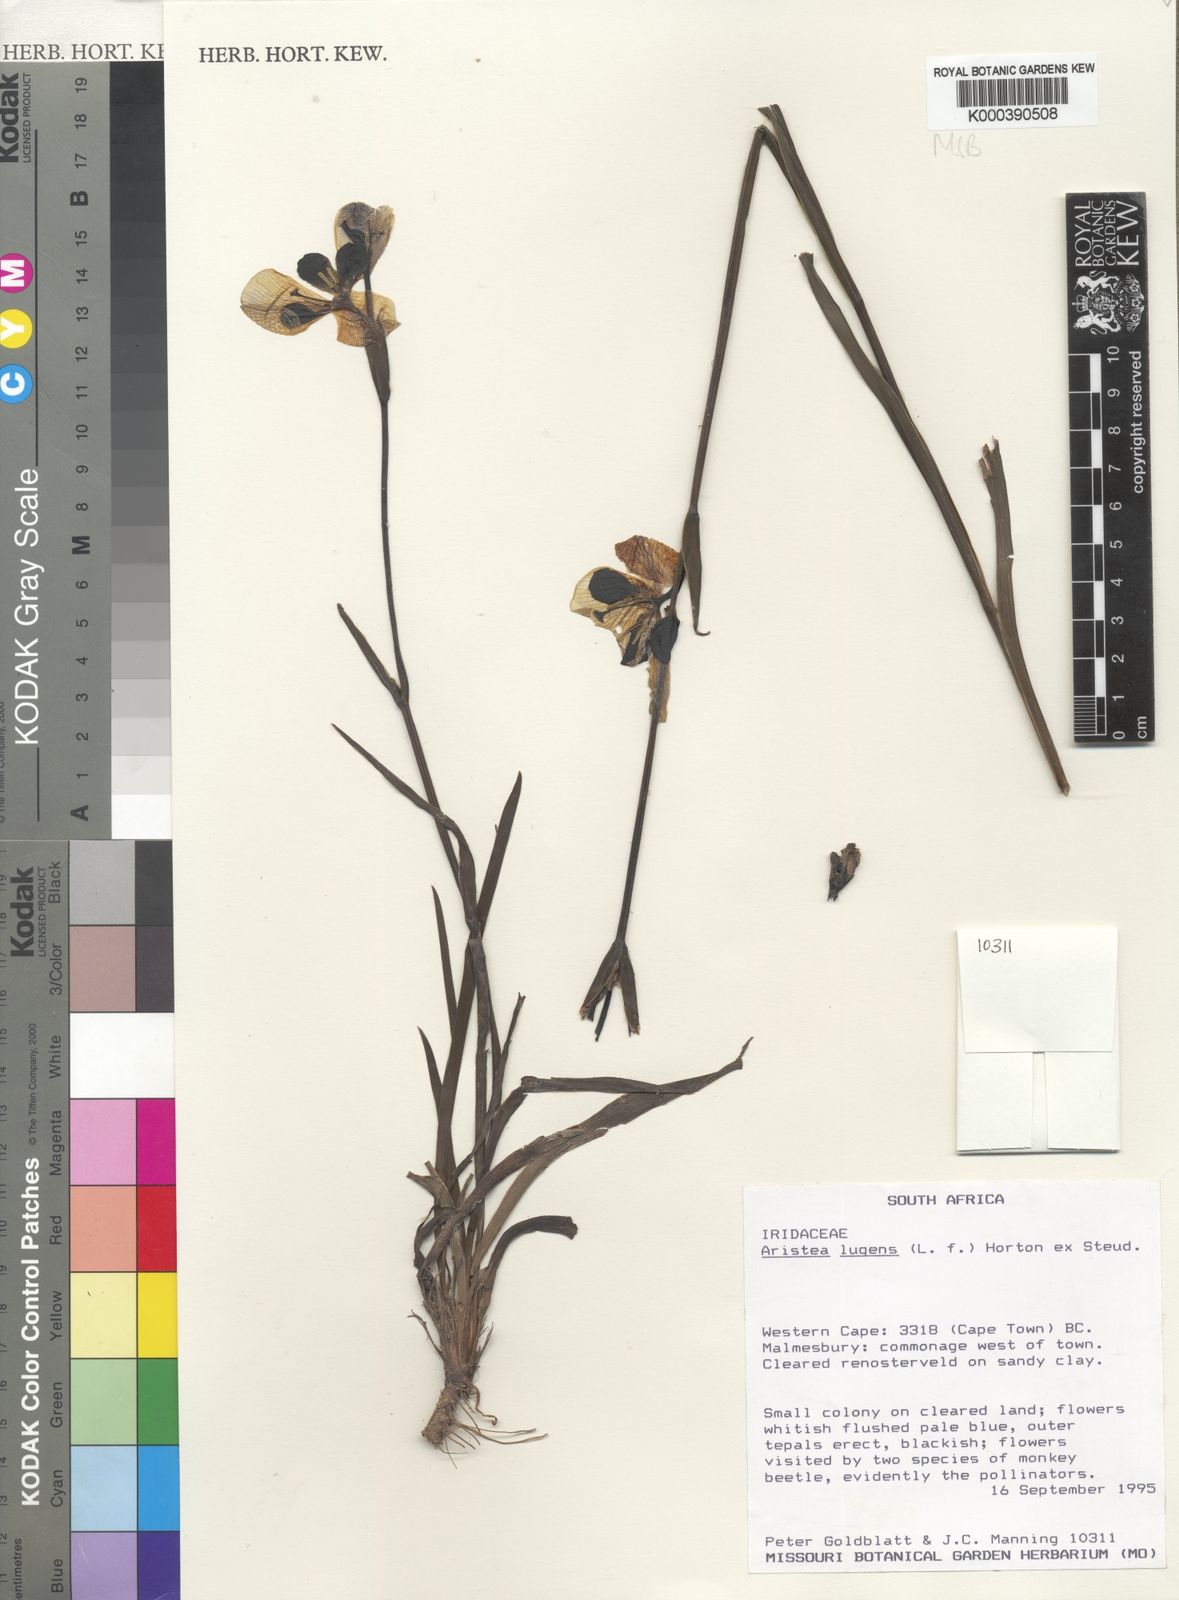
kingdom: Plantae
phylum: Tracheophyta
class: Liliopsida
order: Asparagales
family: Iridaceae
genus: Aristea
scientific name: Aristea
